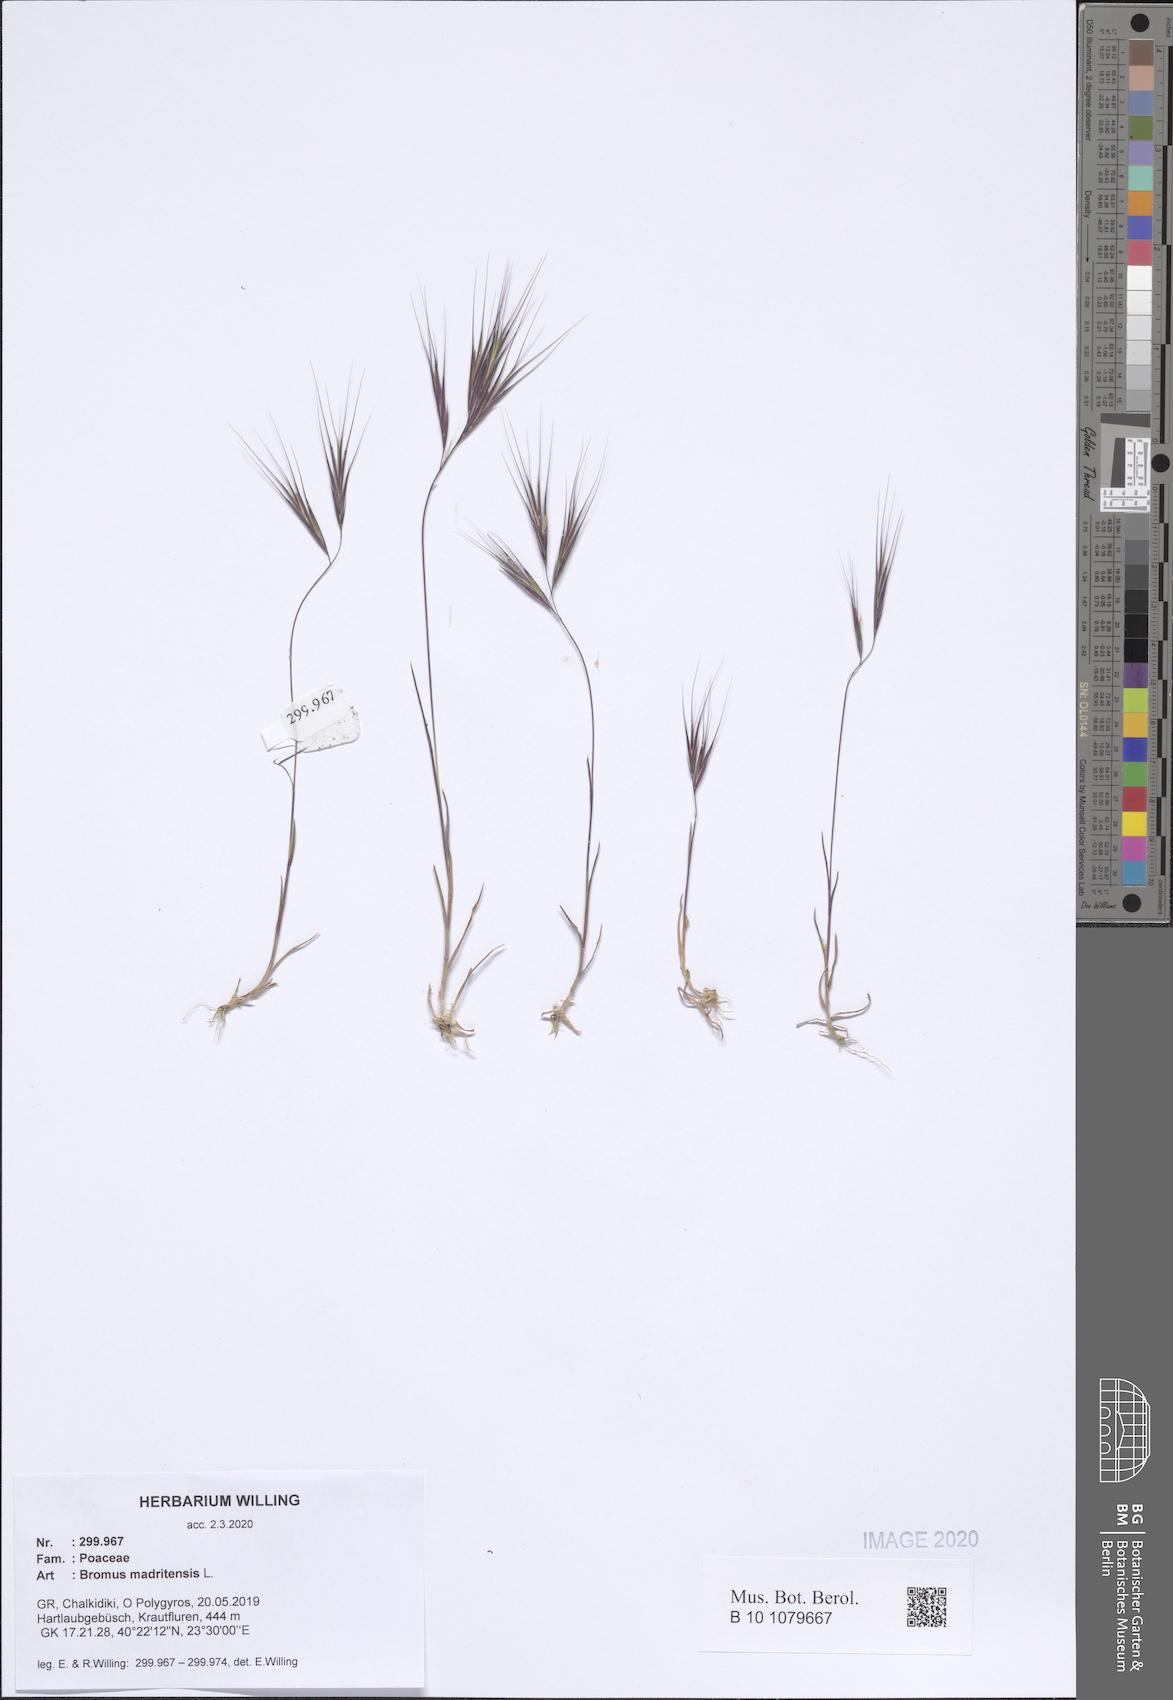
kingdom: Plantae
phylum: Tracheophyta
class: Liliopsida
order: Poales
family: Poaceae
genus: Bromus
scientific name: Bromus madritensis
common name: Compact brome
